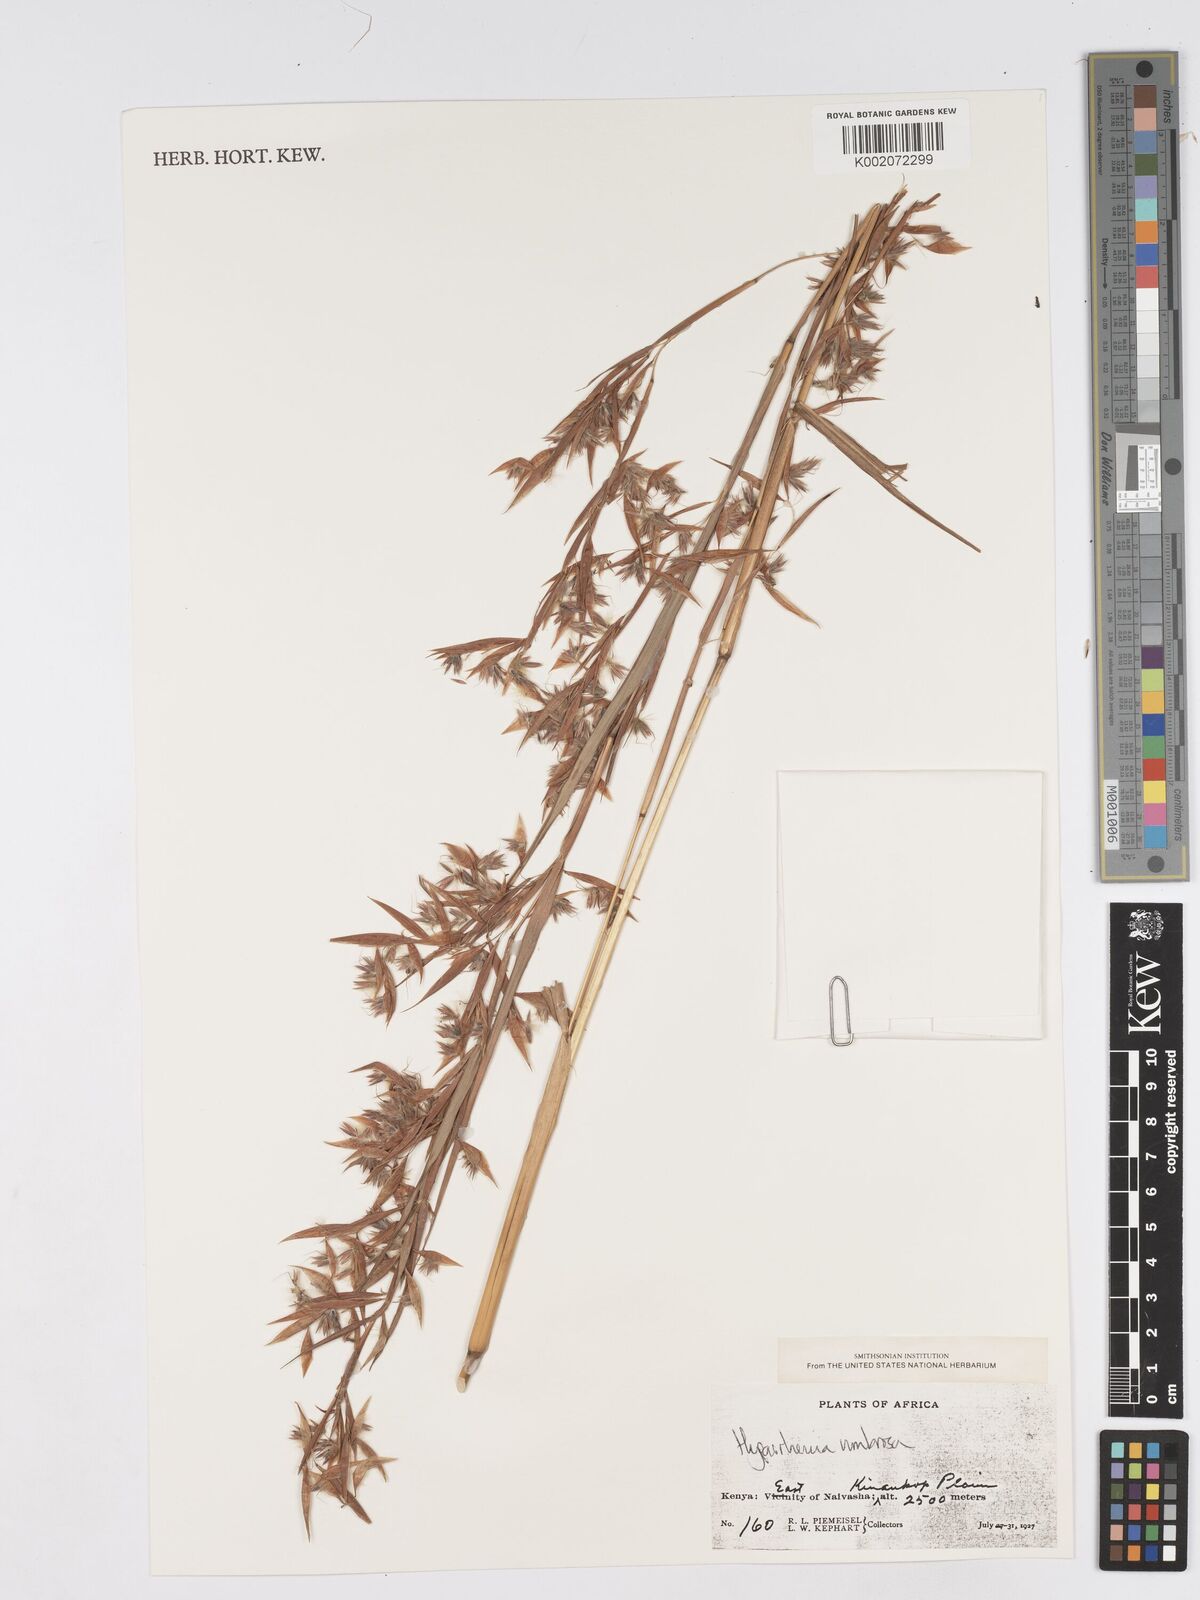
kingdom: Plantae
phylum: Tracheophyta
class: Liliopsida
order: Poales
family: Poaceae
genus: Hyparrhenia
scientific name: Hyparrhenia umbrosa
